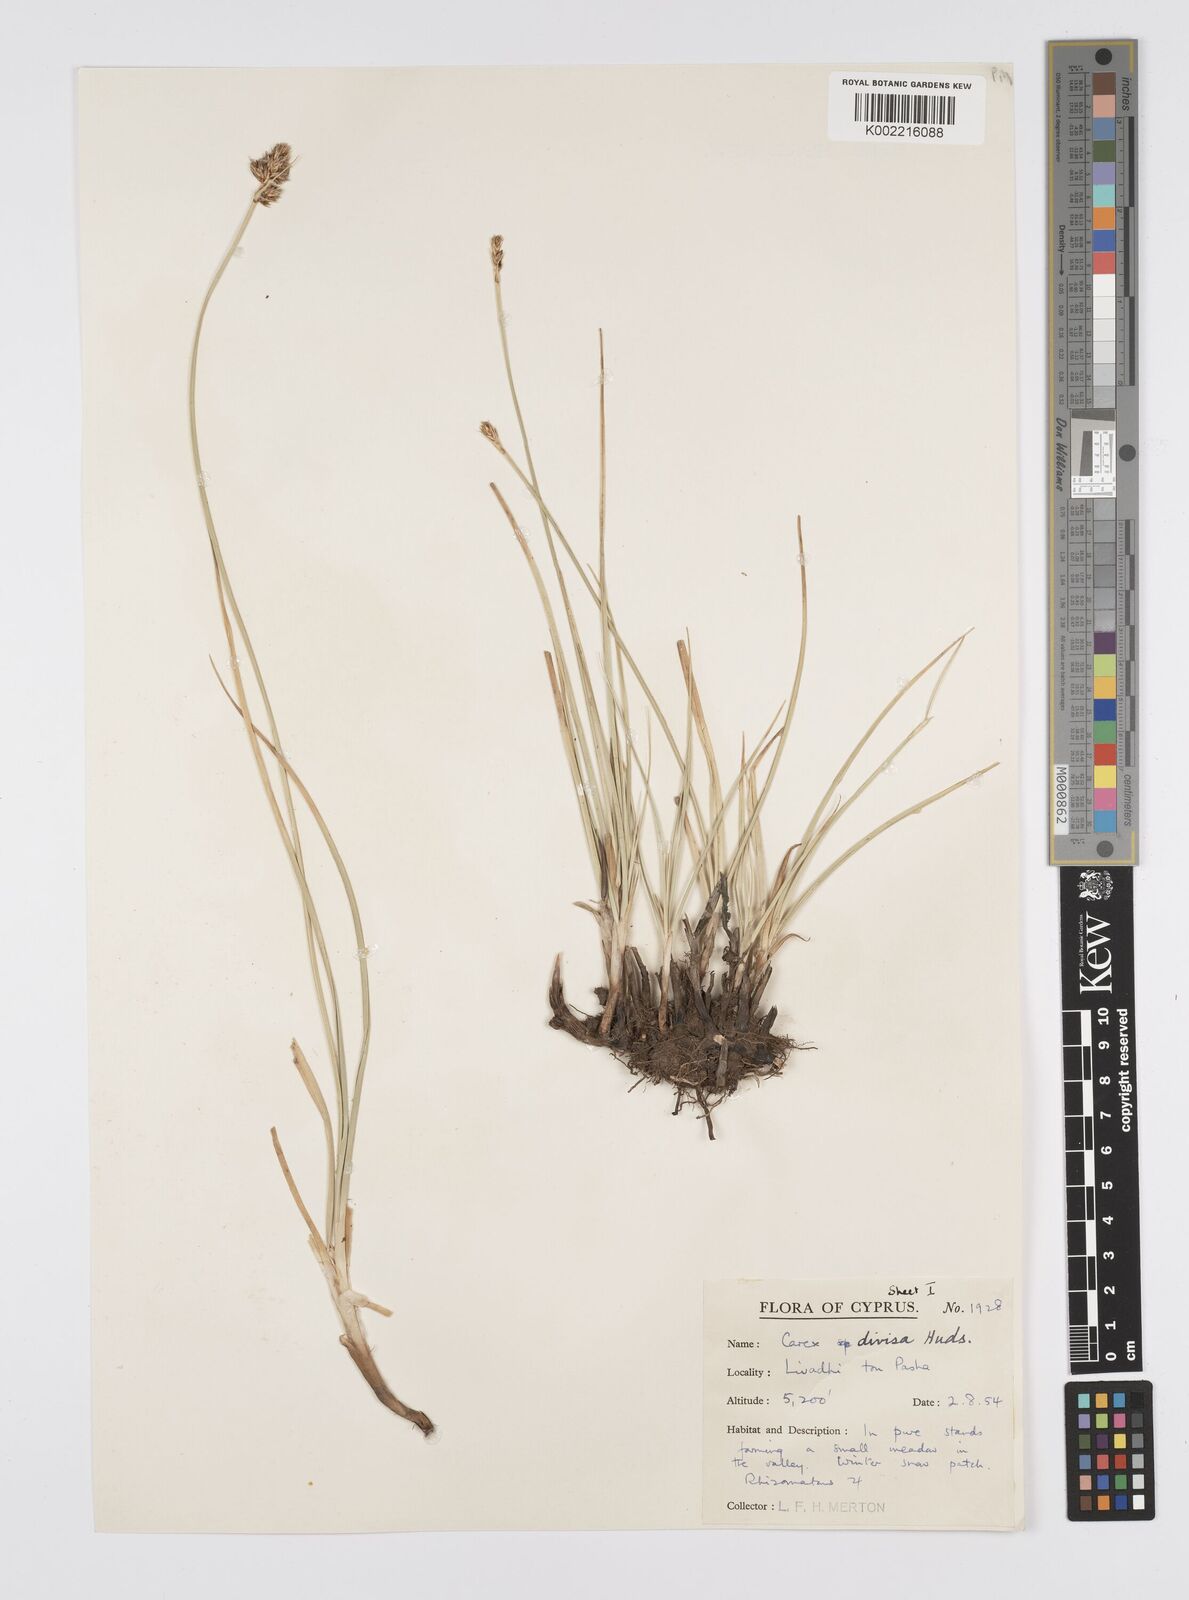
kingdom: Plantae
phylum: Tracheophyta
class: Liliopsida
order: Poales
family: Cyperaceae
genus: Carex
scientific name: Carex divisa
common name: Divided sedge
